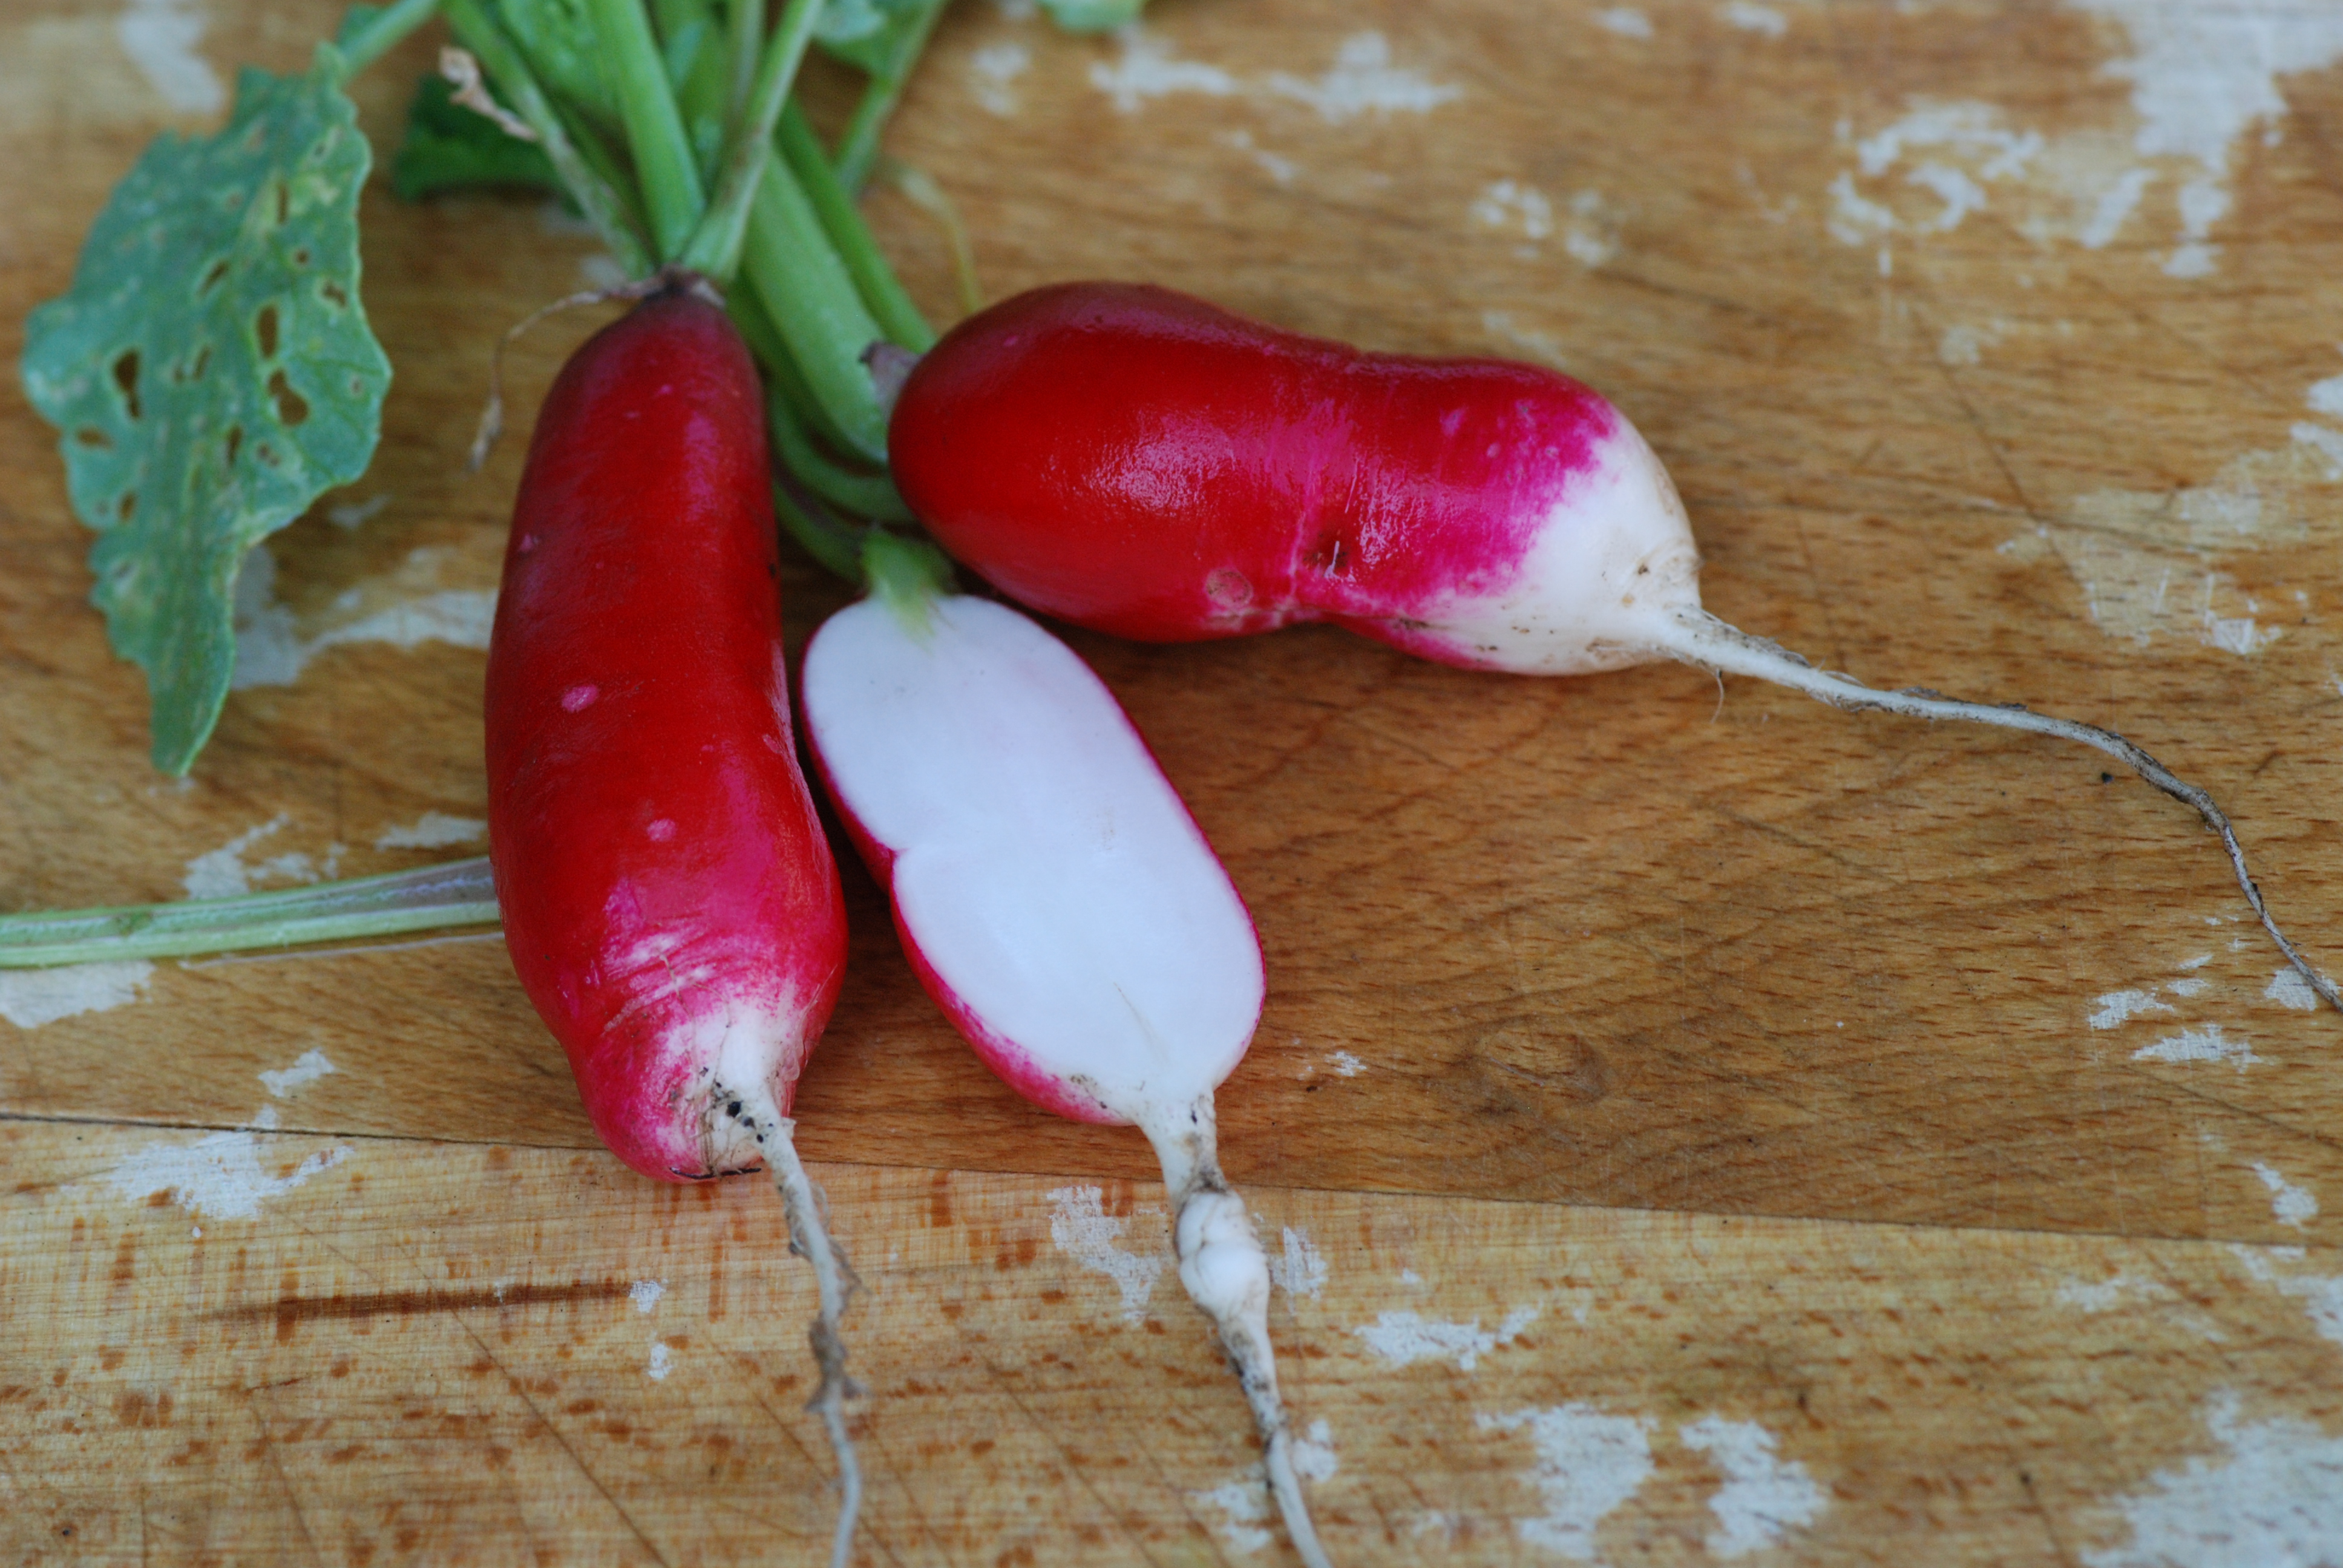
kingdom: Plantae
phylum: Tracheophyta
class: Magnoliopsida
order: Brassicales
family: Brassicaceae
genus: Raphanus
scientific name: Raphanus sativus
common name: Cultivated radish
